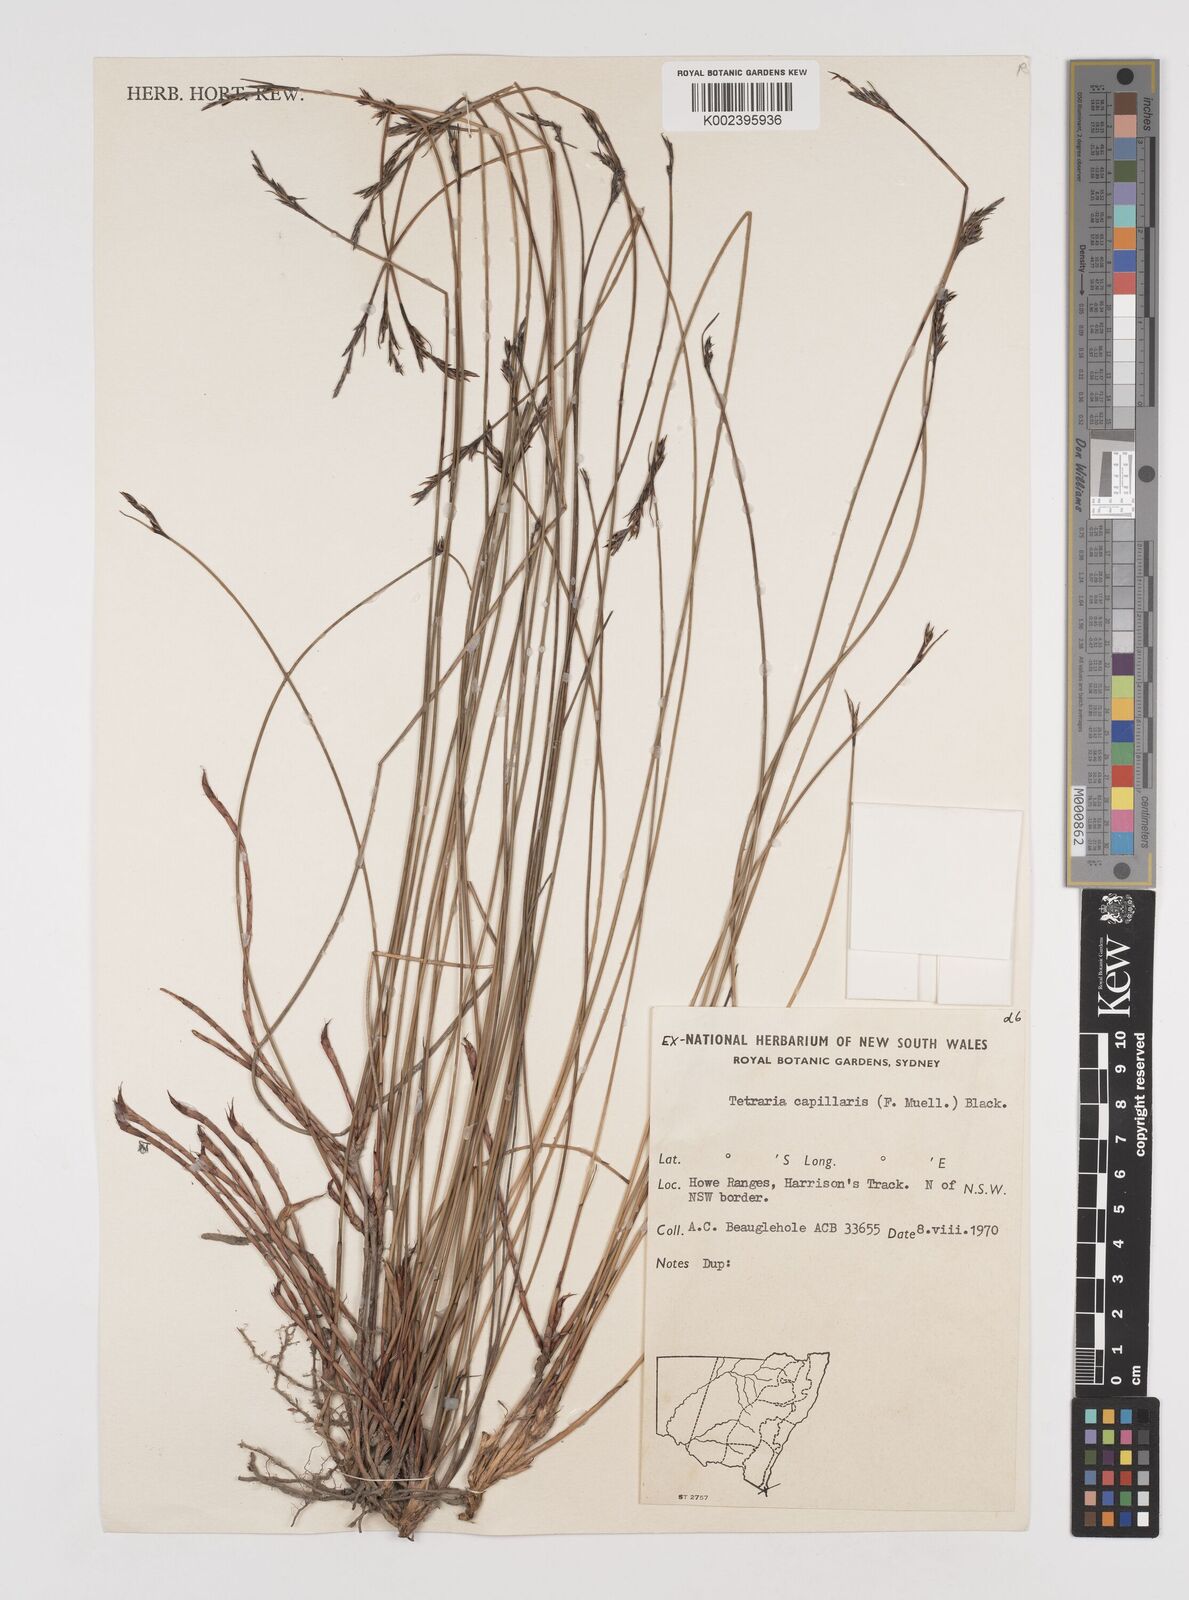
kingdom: Plantae
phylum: Tracheophyta
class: Liliopsida
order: Poales
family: Cyperaceae
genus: Tetraria
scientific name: Tetraria capillaris
